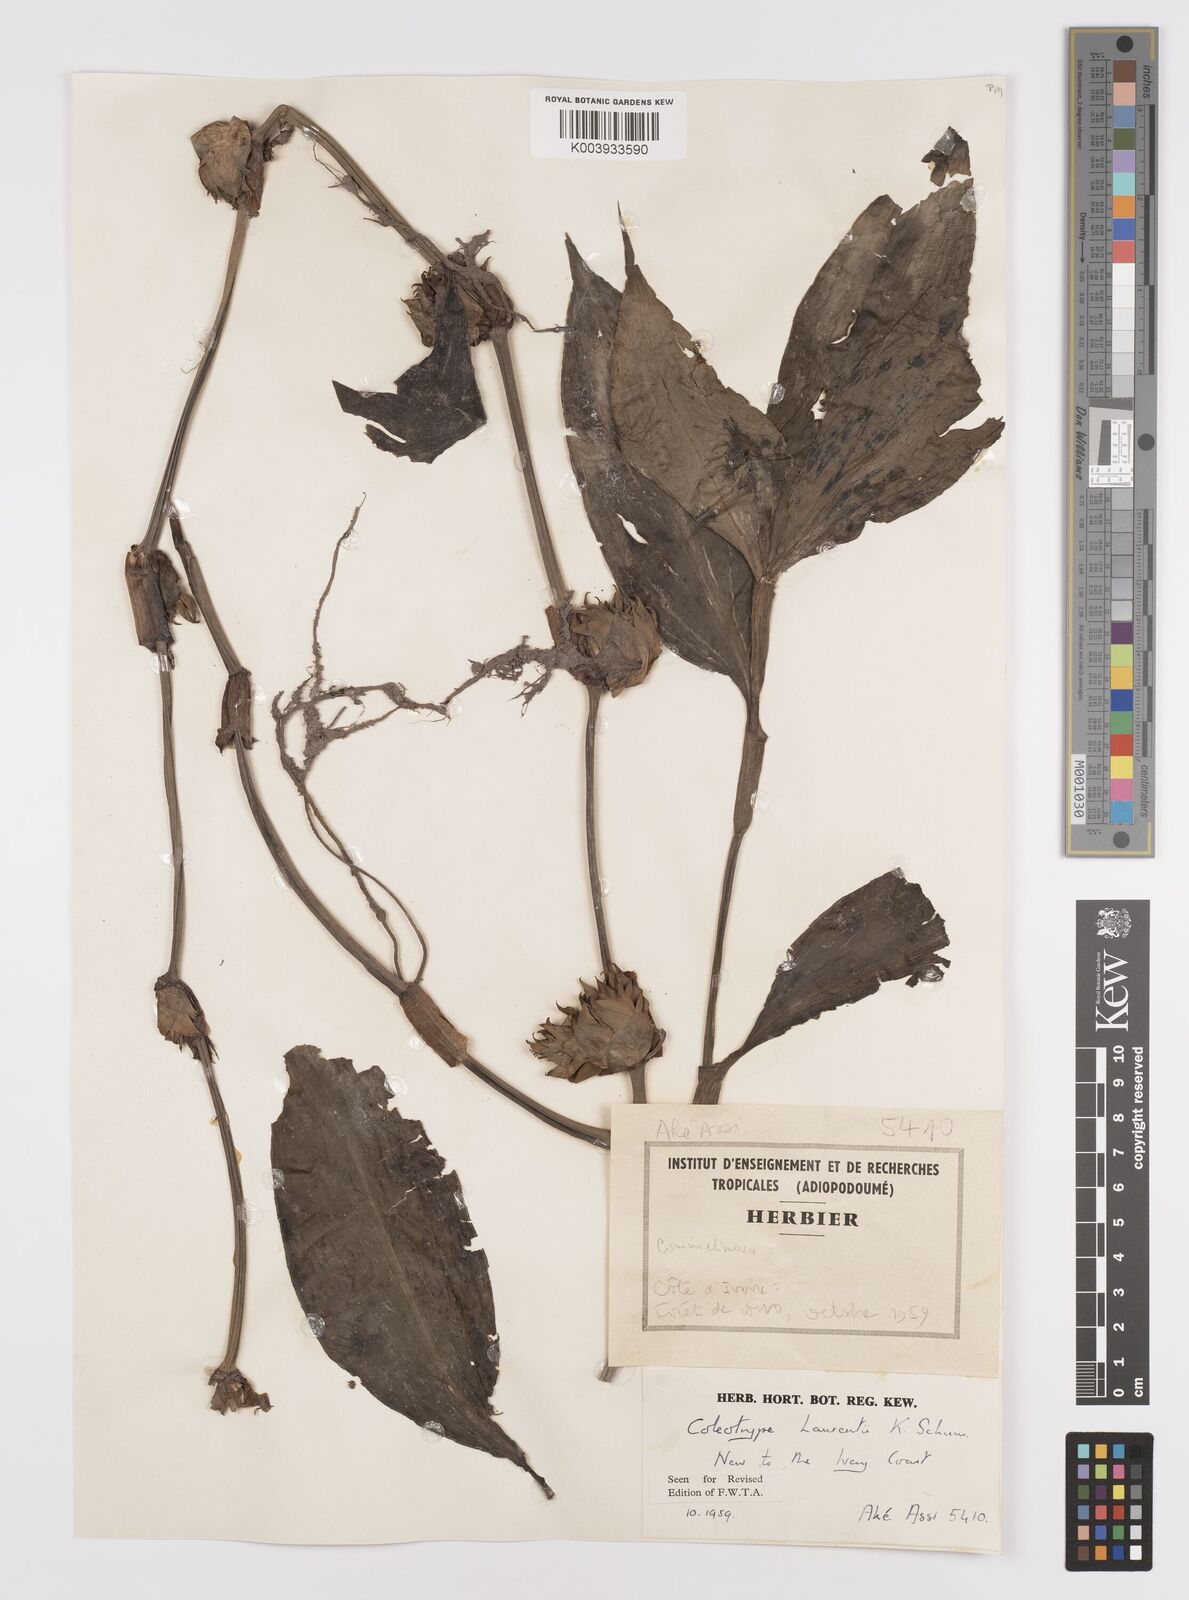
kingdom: Plantae
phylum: Tracheophyta
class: Liliopsida
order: Commelinales
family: Commelinaceae
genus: Coleotrype
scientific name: Coleotrype laurentii
